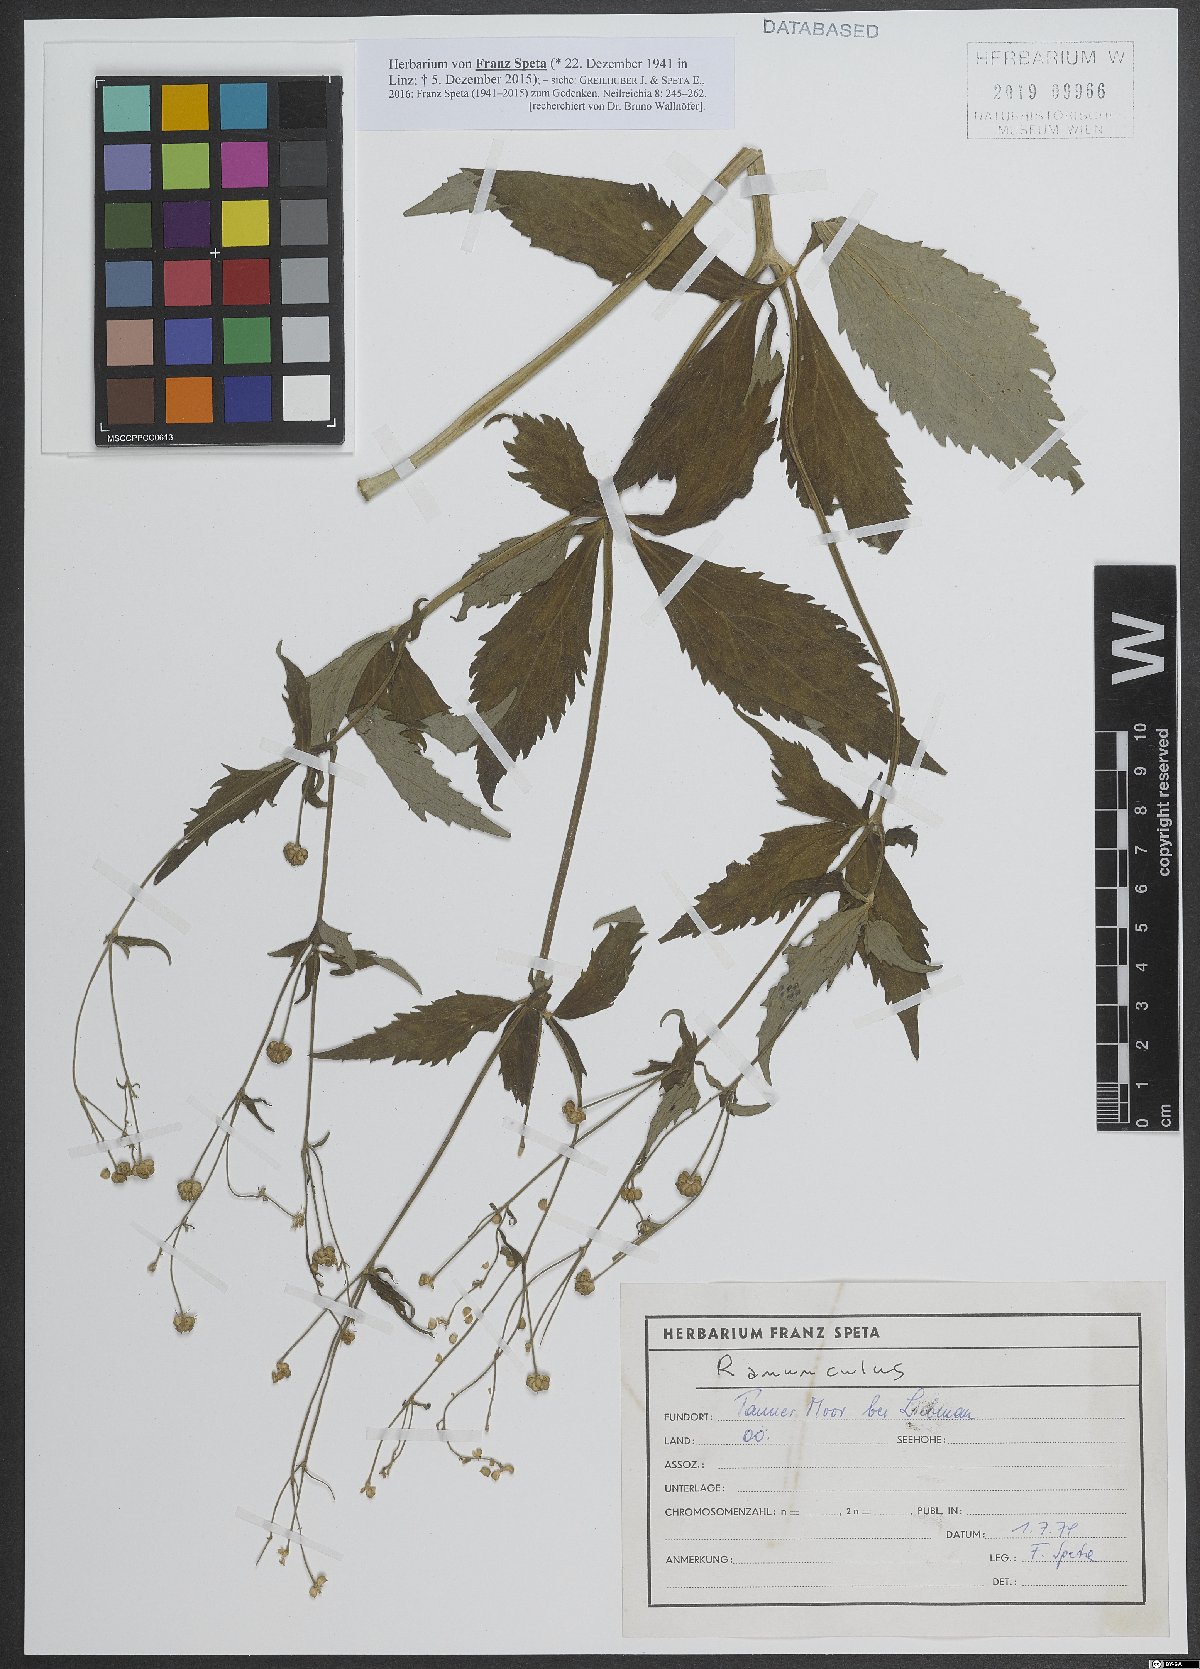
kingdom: Plantae
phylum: Tracheophyta
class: Magnoliopsida
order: Ranunculales
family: Ranunculaceae
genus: Ranunculus
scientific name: Ranunculus
